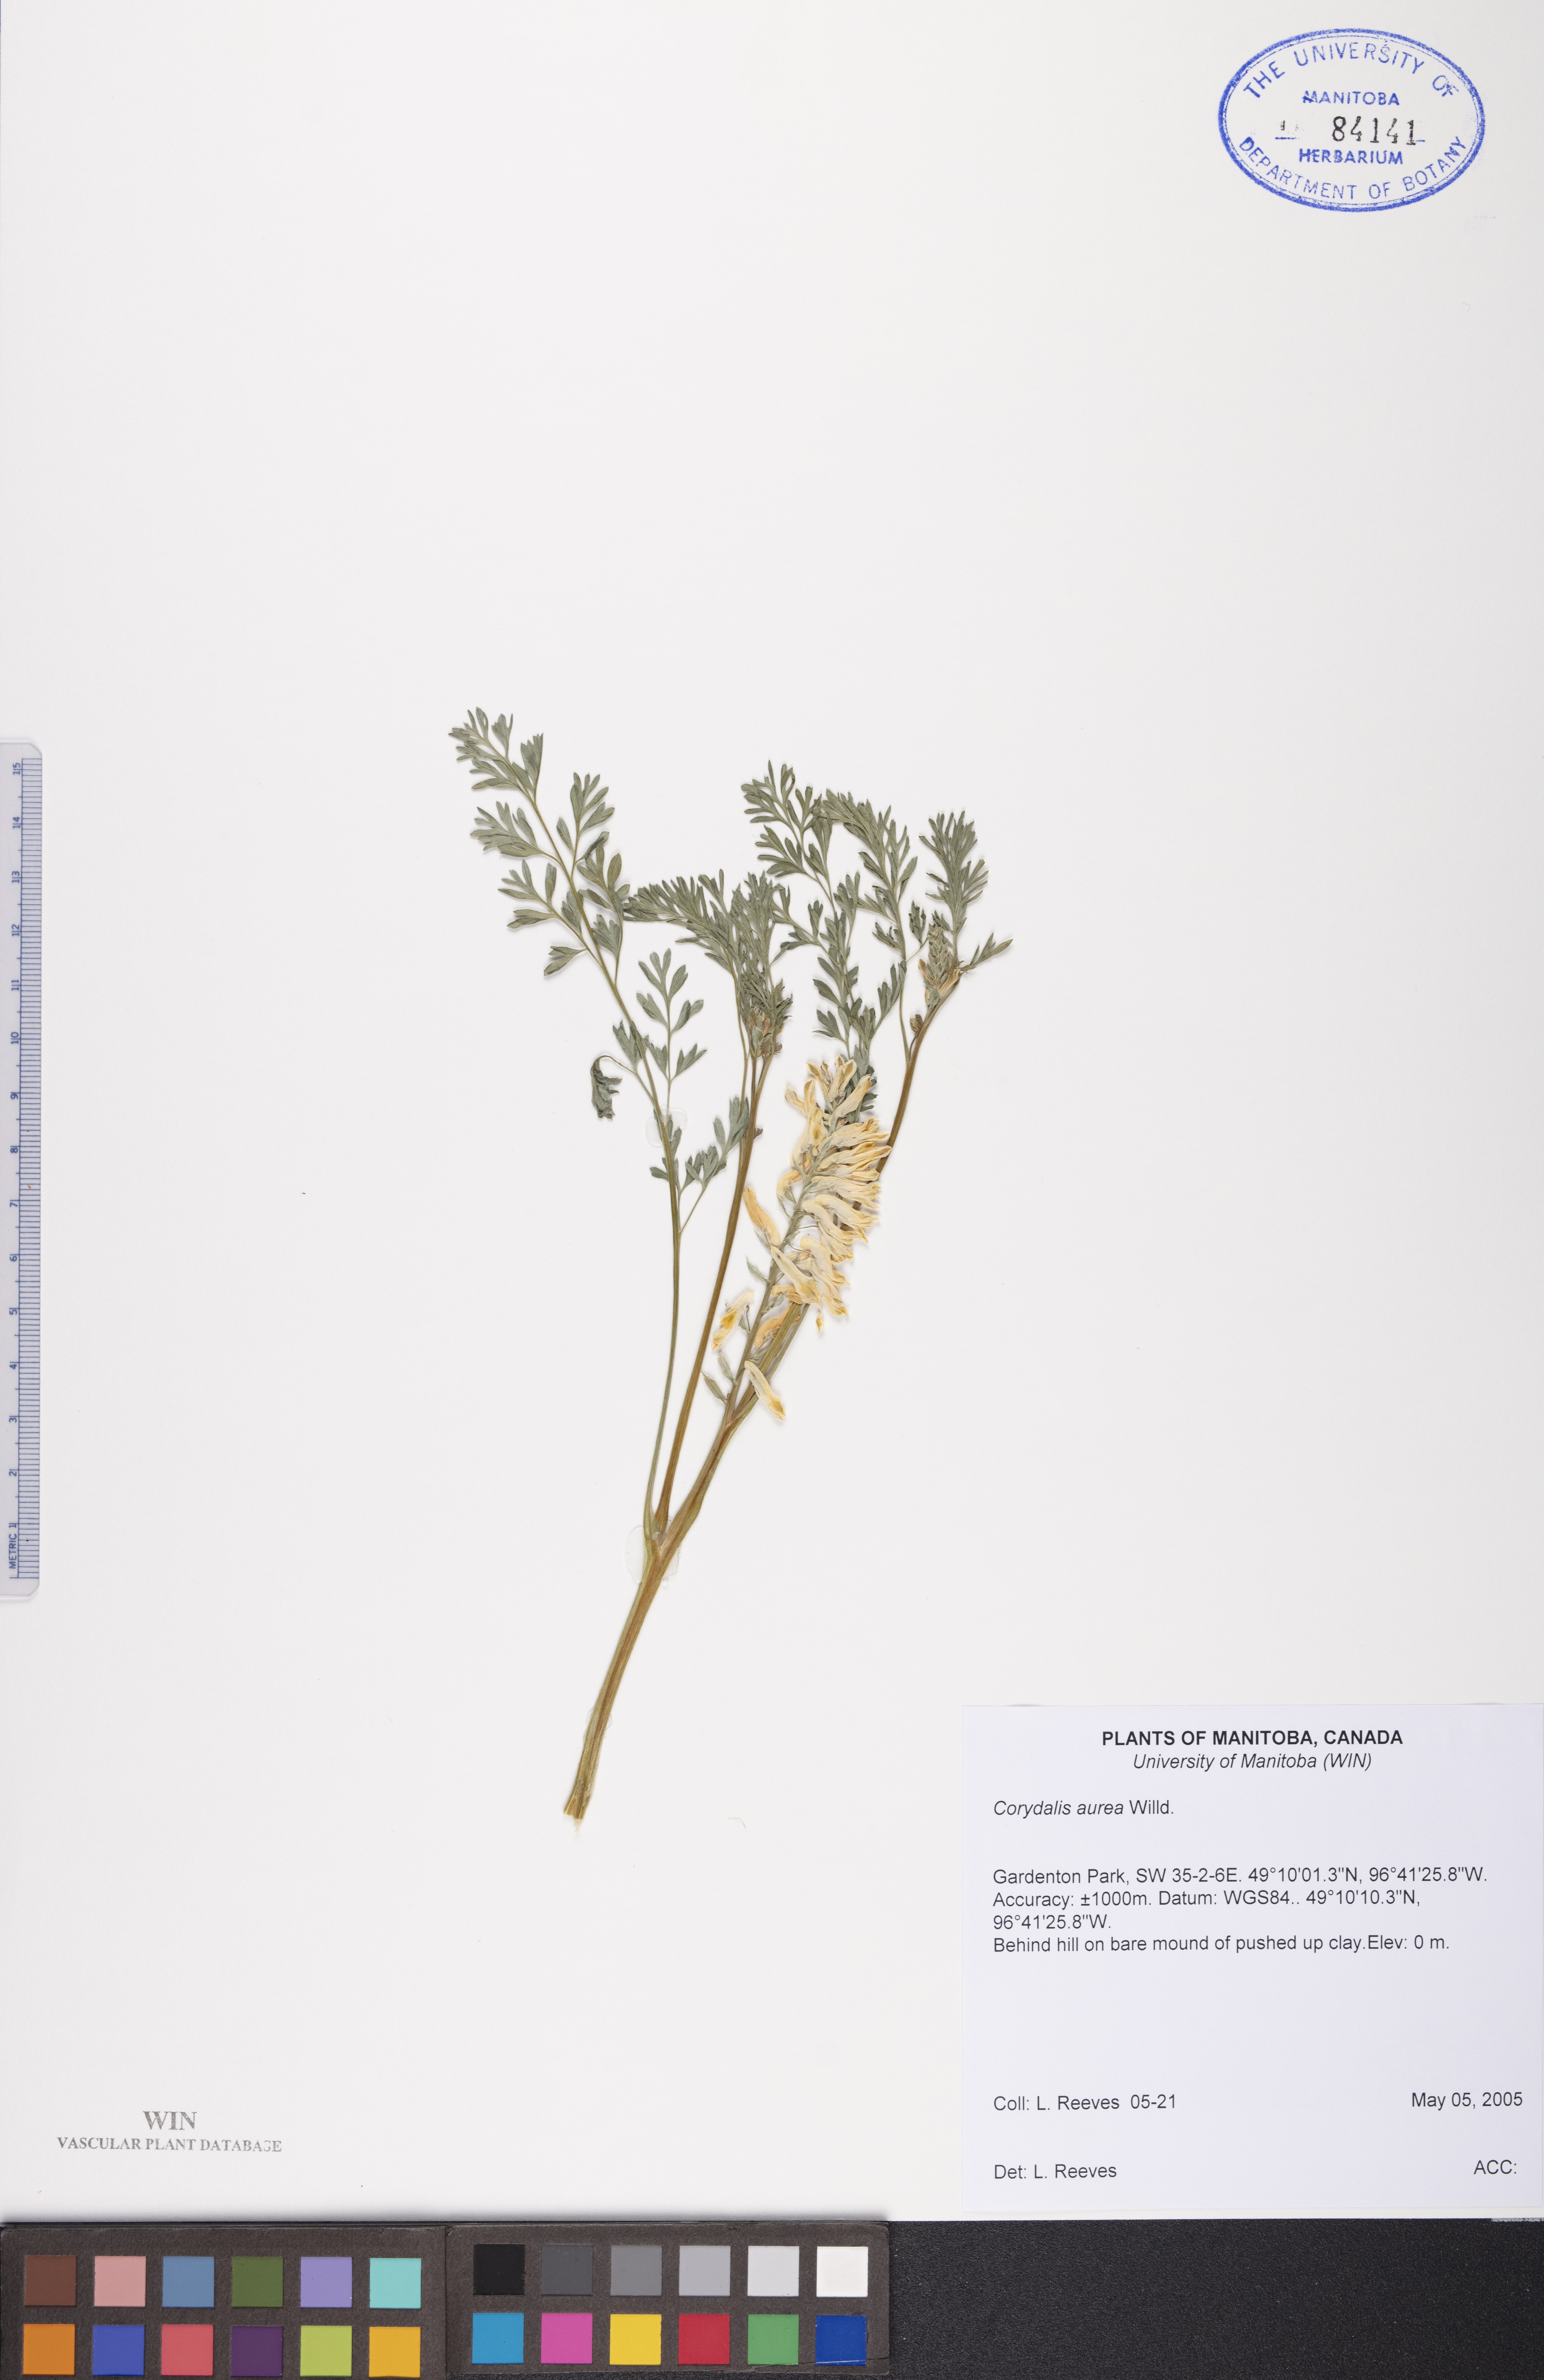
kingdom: Plantae
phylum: Tracheophyta
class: Magnoliopsida
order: Ranunculales
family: Papaveraceae
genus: Corydalis
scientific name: Corydalis aurea
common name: Golden corydalis
